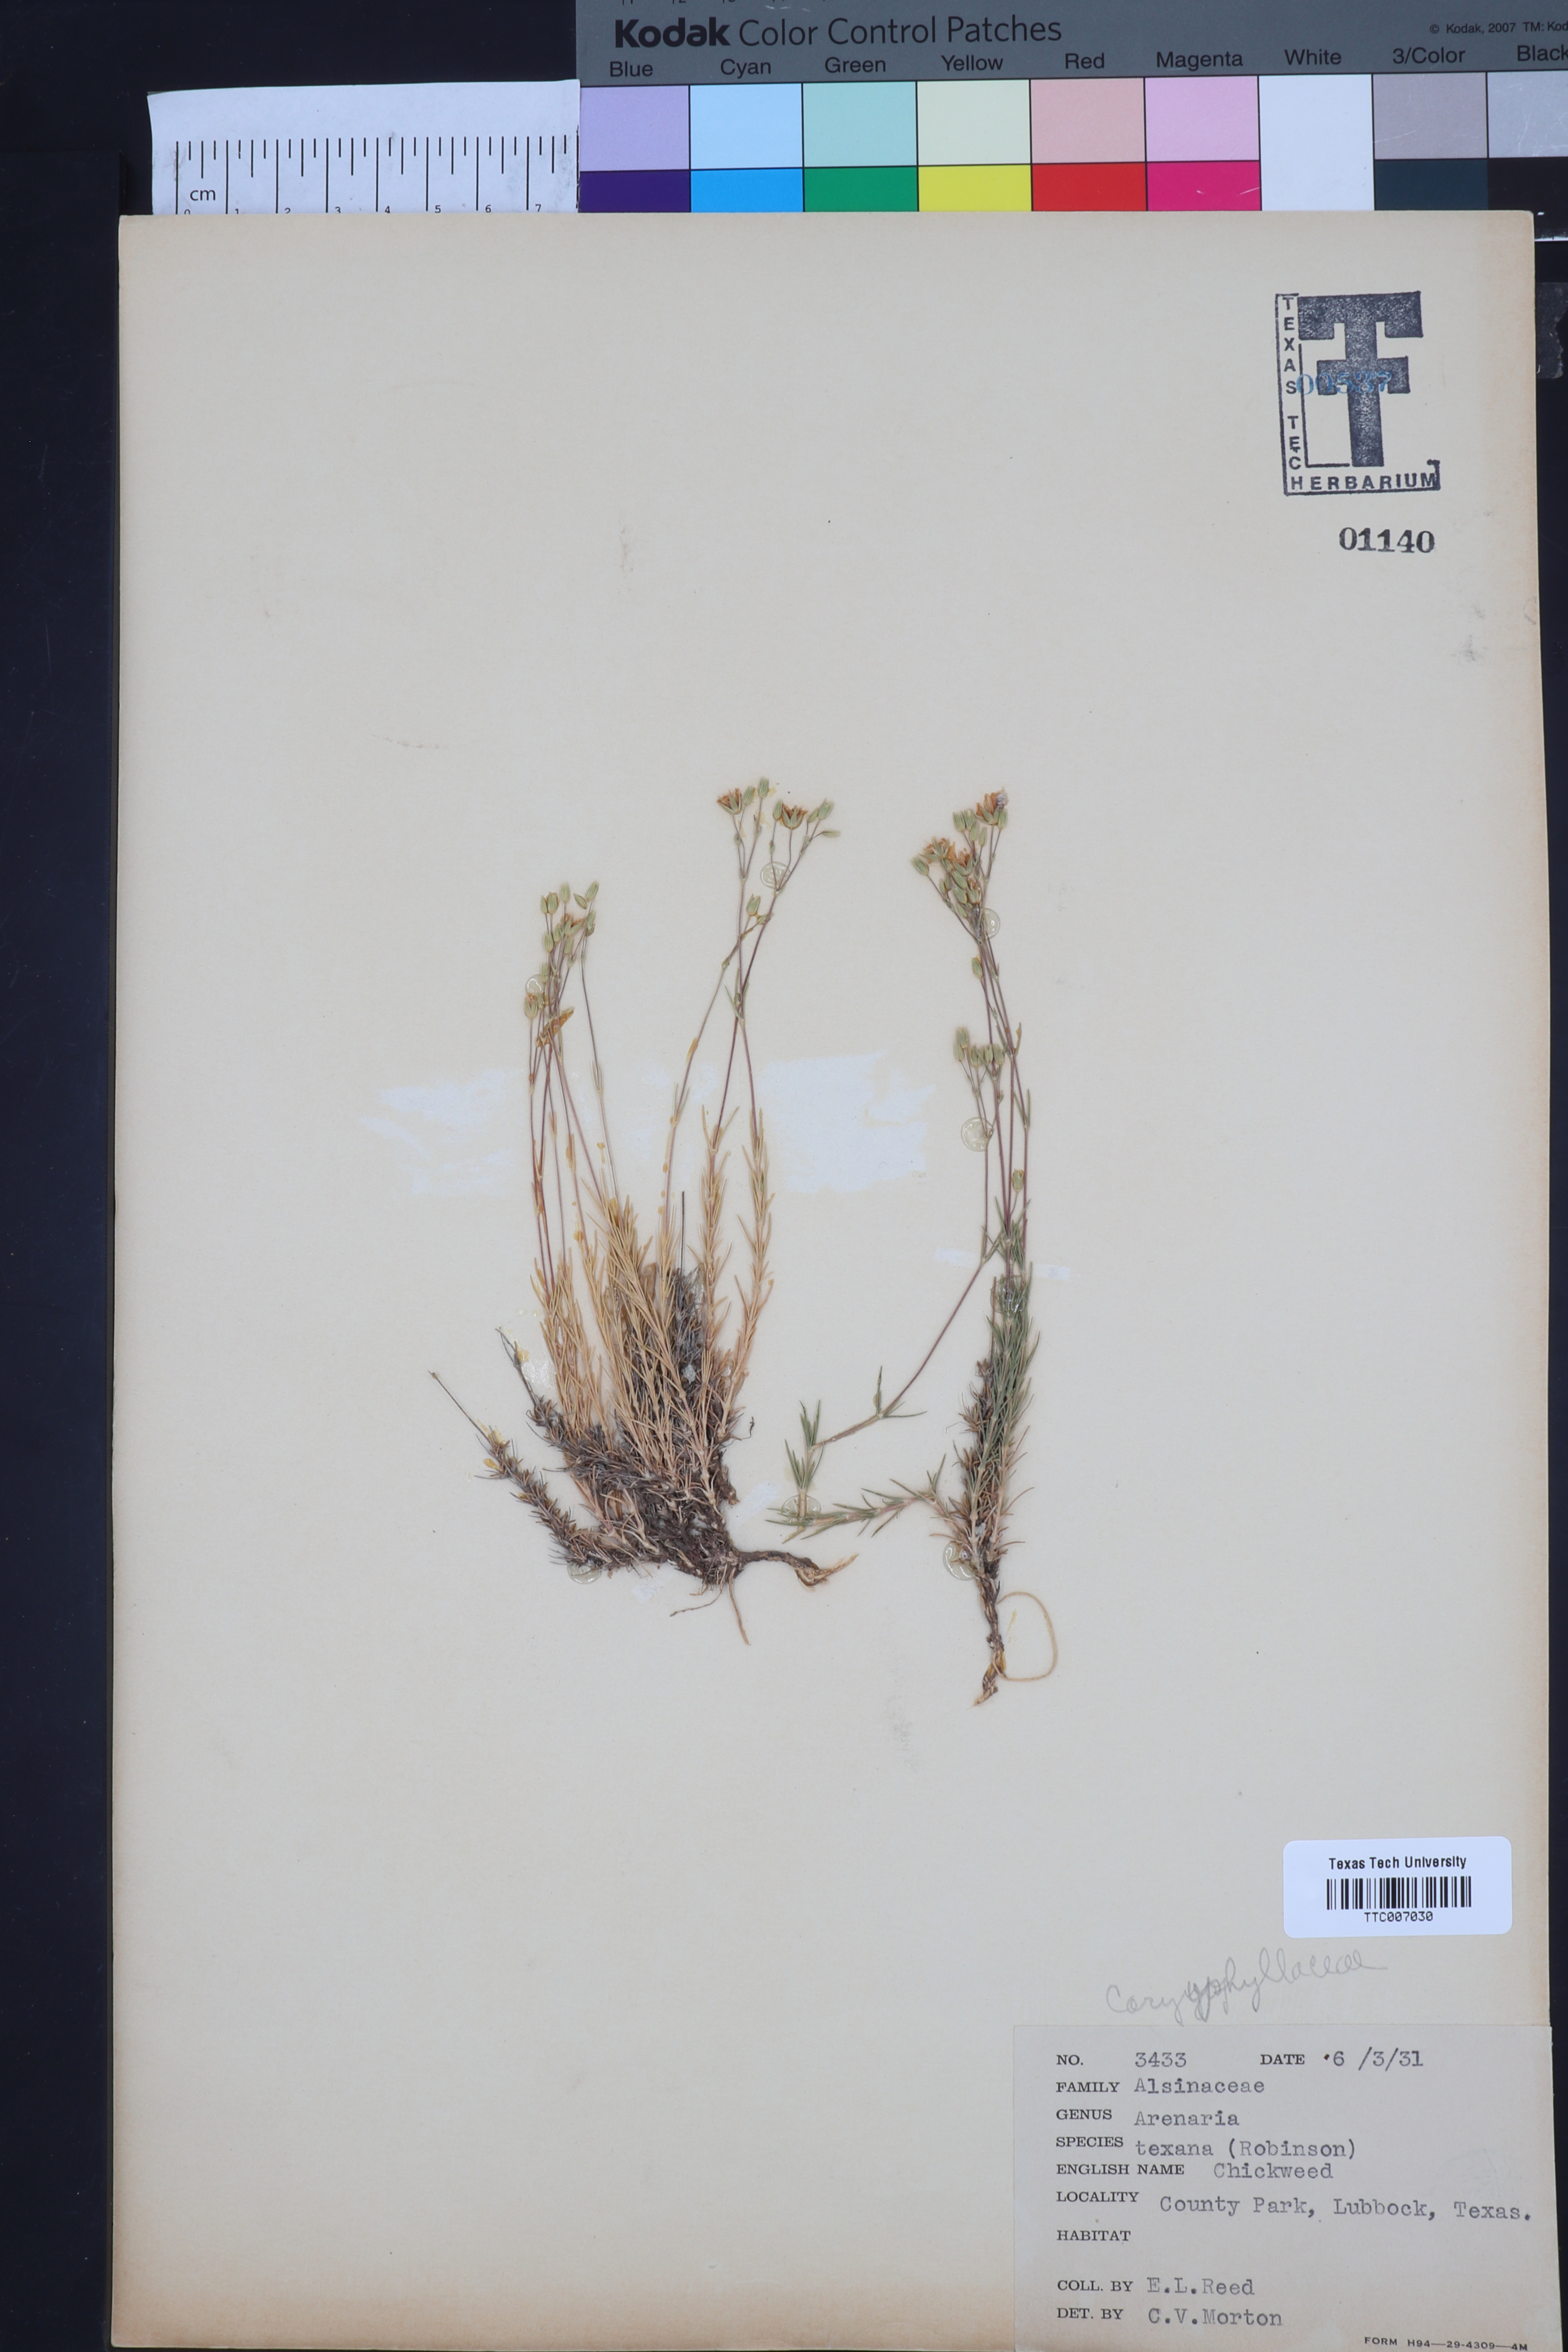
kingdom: Plantae
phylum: Tracheophyta
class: Magnoliopsida
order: Caryophyllales
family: Caryophyllaceae
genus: Sabulina
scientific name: Sabulina texana
